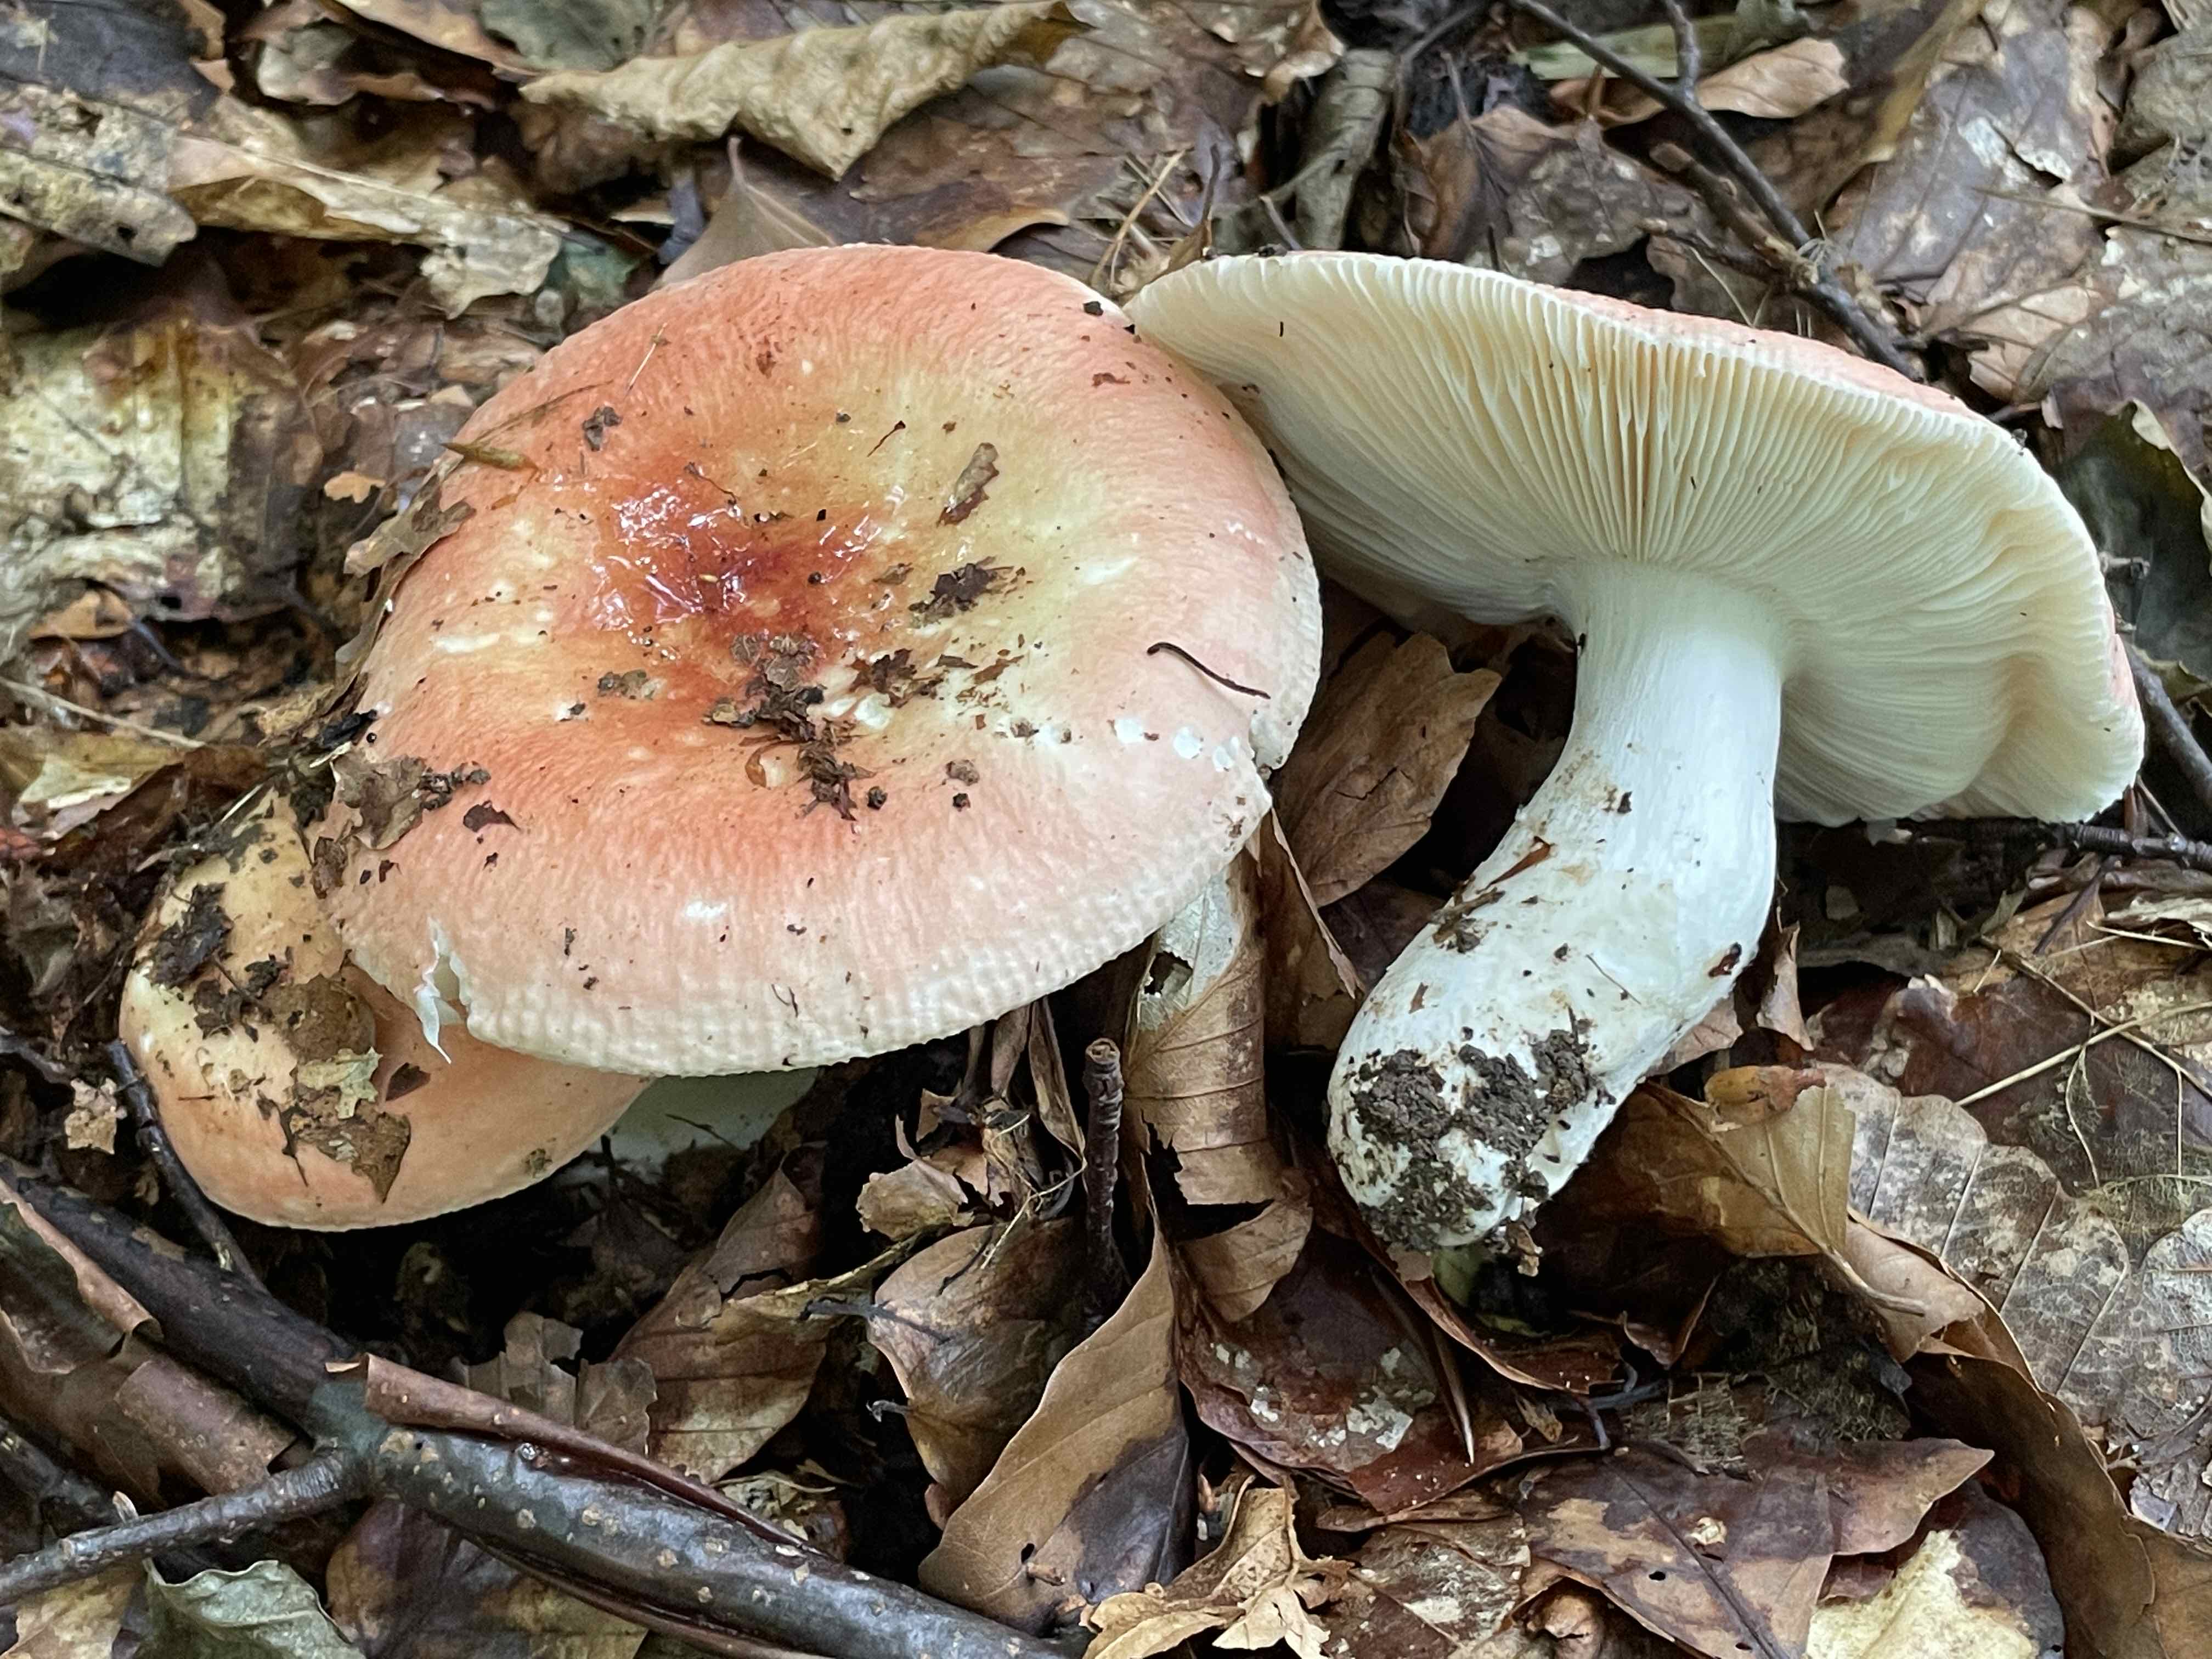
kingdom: Fungi
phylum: Basidiomycota
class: Agaricomycetes
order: Russulales
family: Russulaceae
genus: Russula
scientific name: Russula aurora
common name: rosa skørhat
